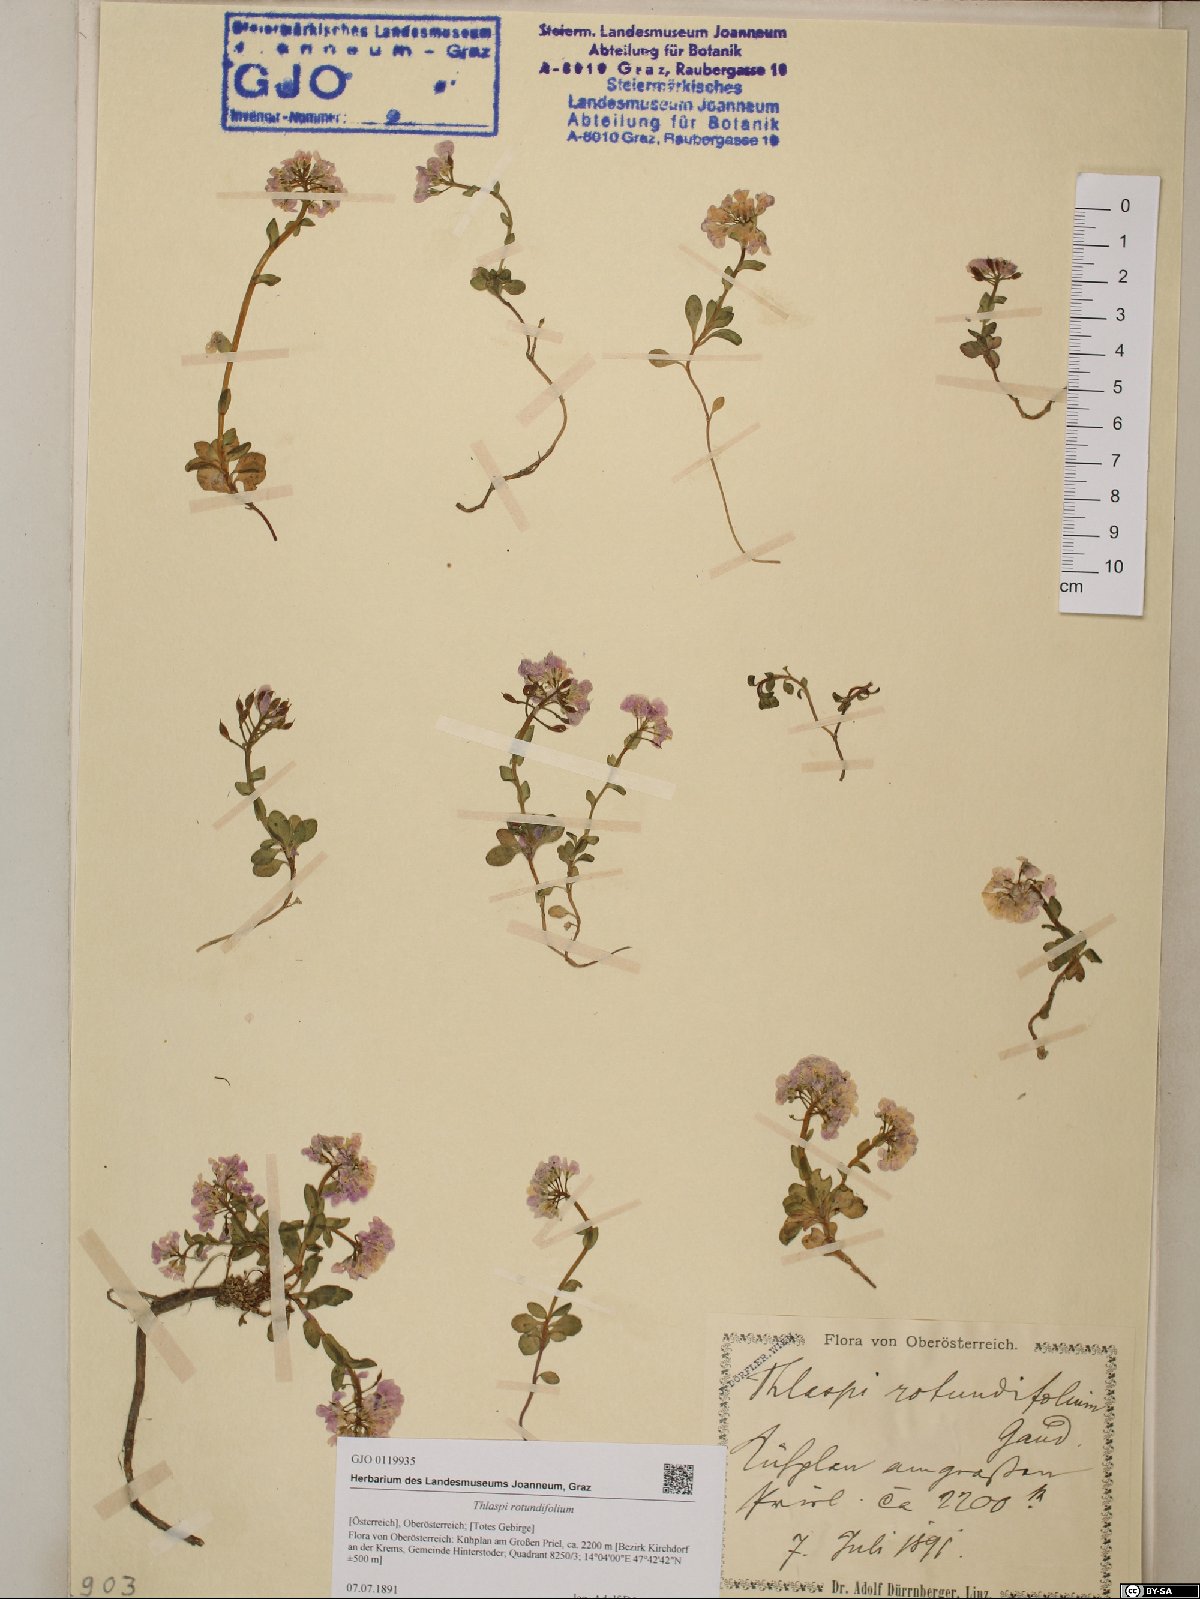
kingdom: Plantae
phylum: Tracheophyta
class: Magnoliopsida
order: Brassicales
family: Brassicaceae
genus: Noccaea
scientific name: Noccaea rotundifolia
